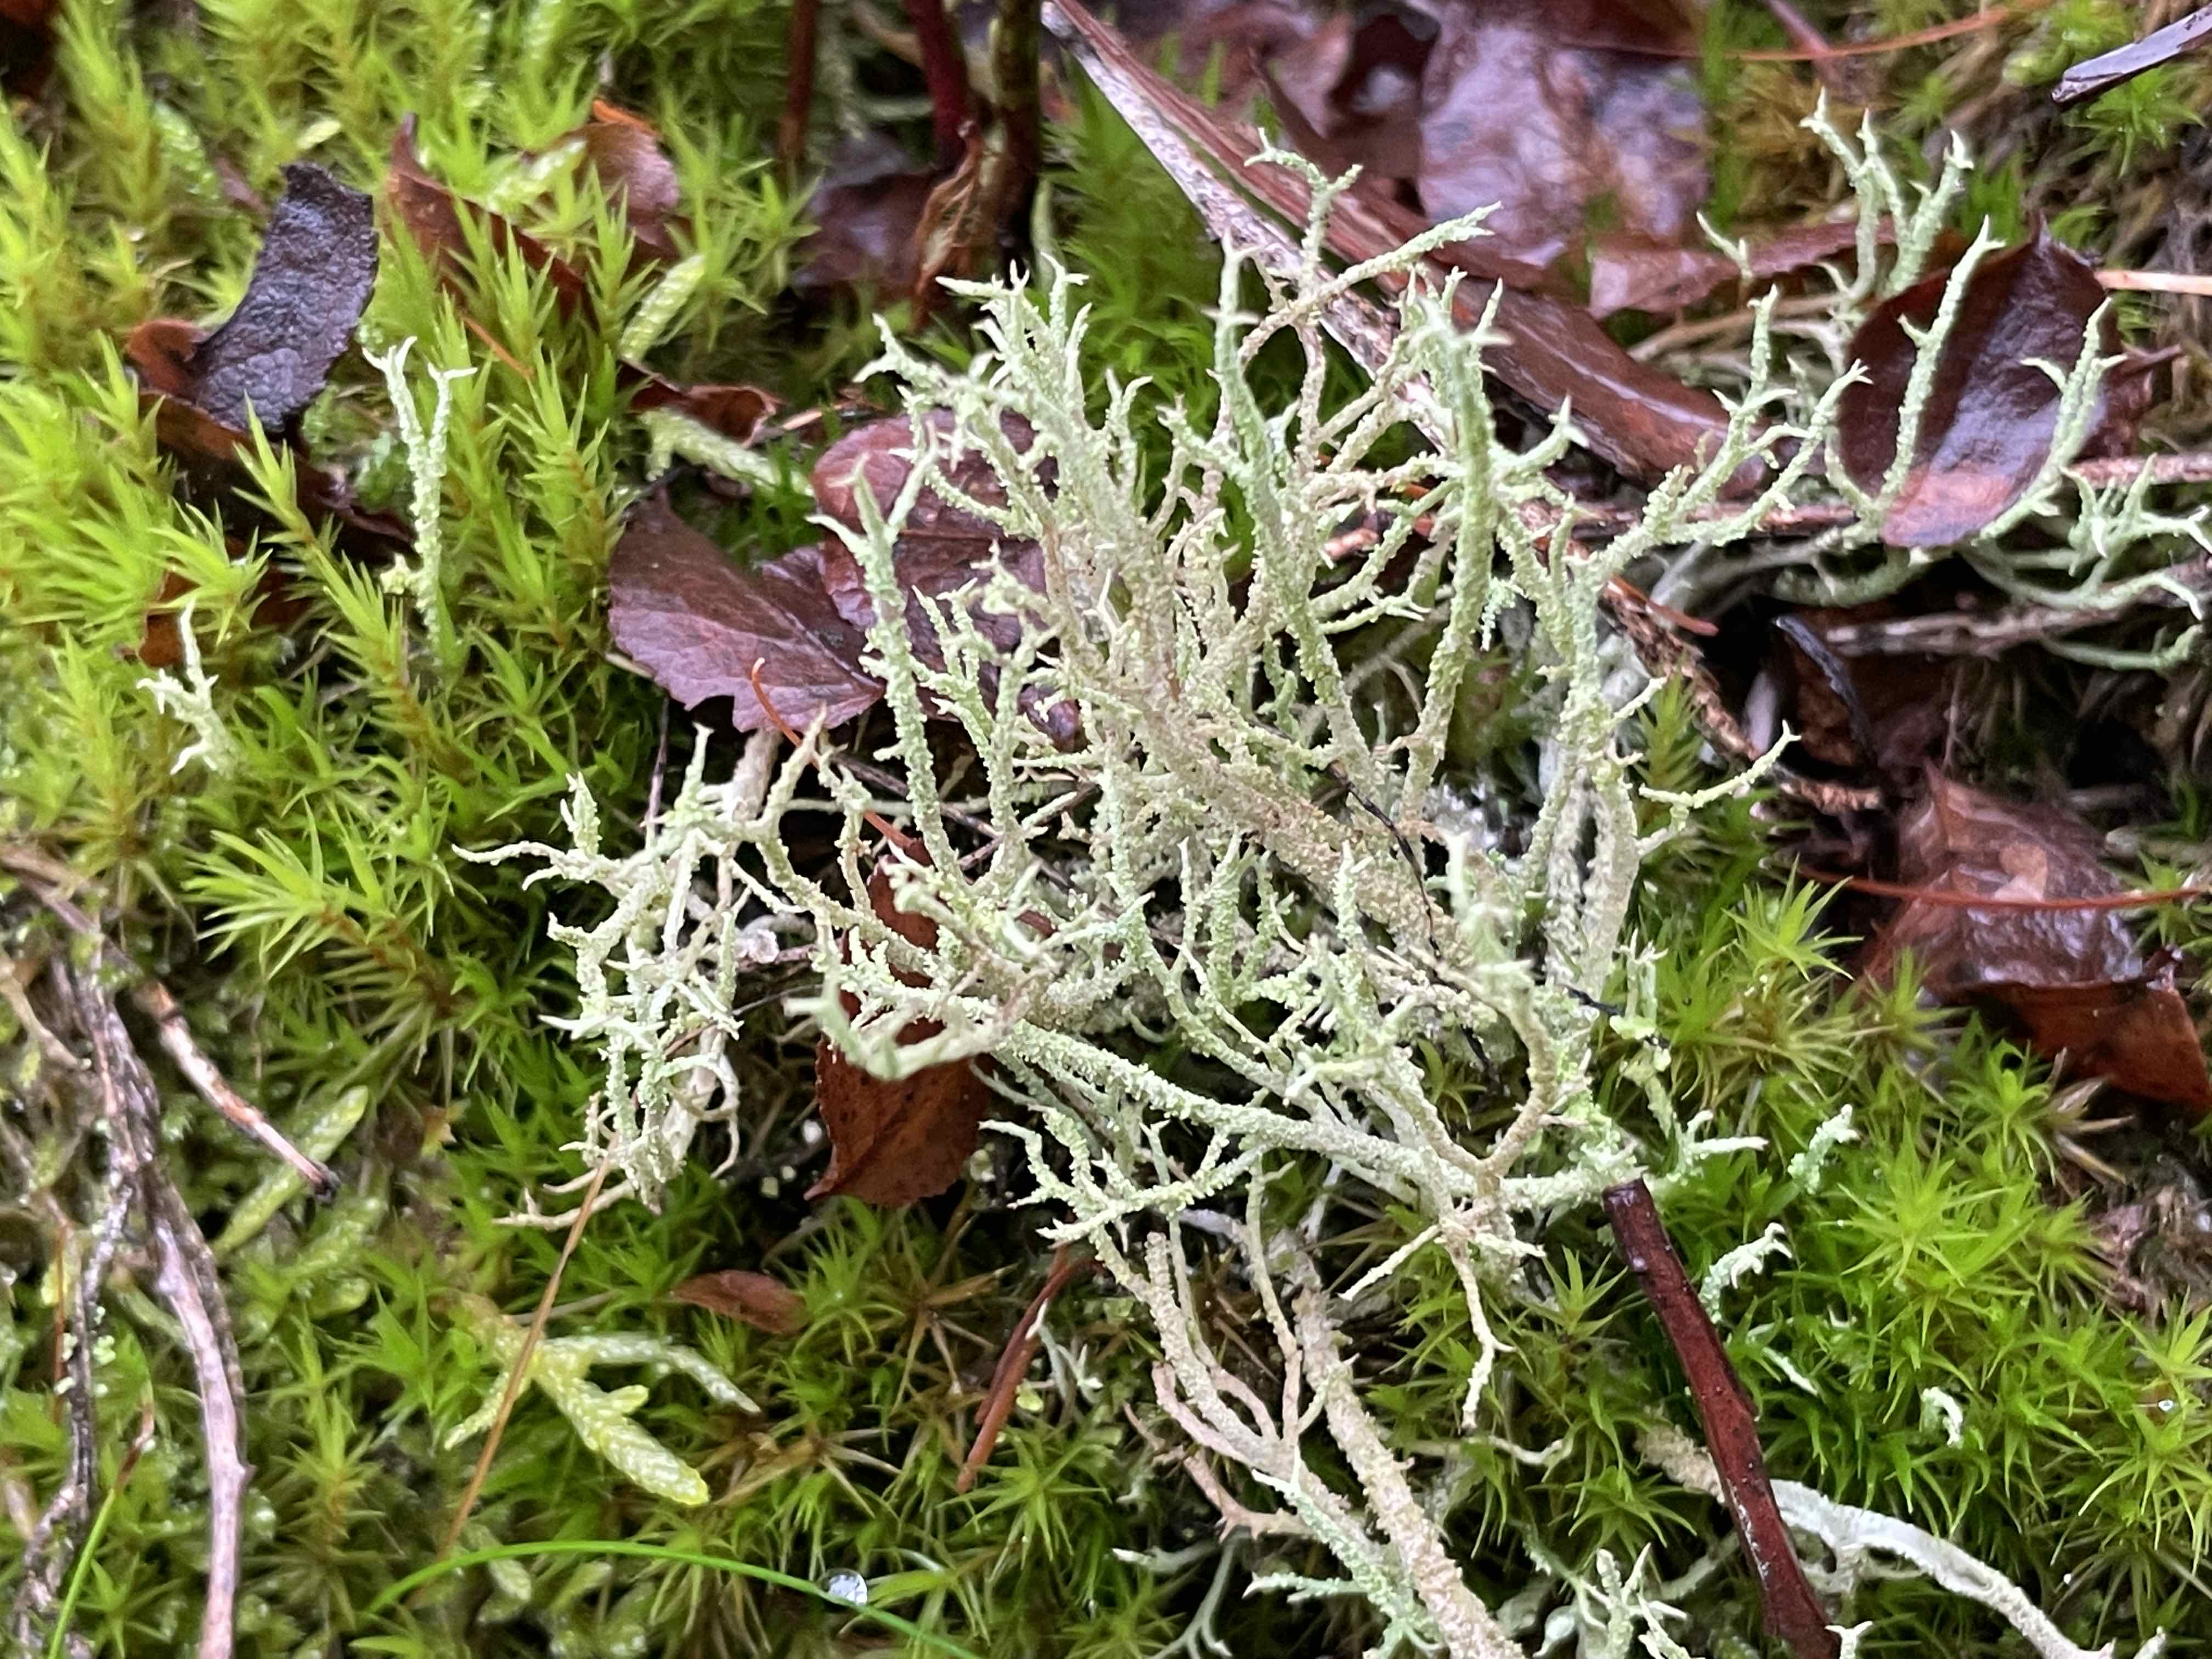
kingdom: Fungi
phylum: Ascomycota
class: Lecanoromycetes
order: Lecanorales
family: Cladoniaceae
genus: Cladonia
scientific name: Cladonia scabriuscula
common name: ru bægerlav
